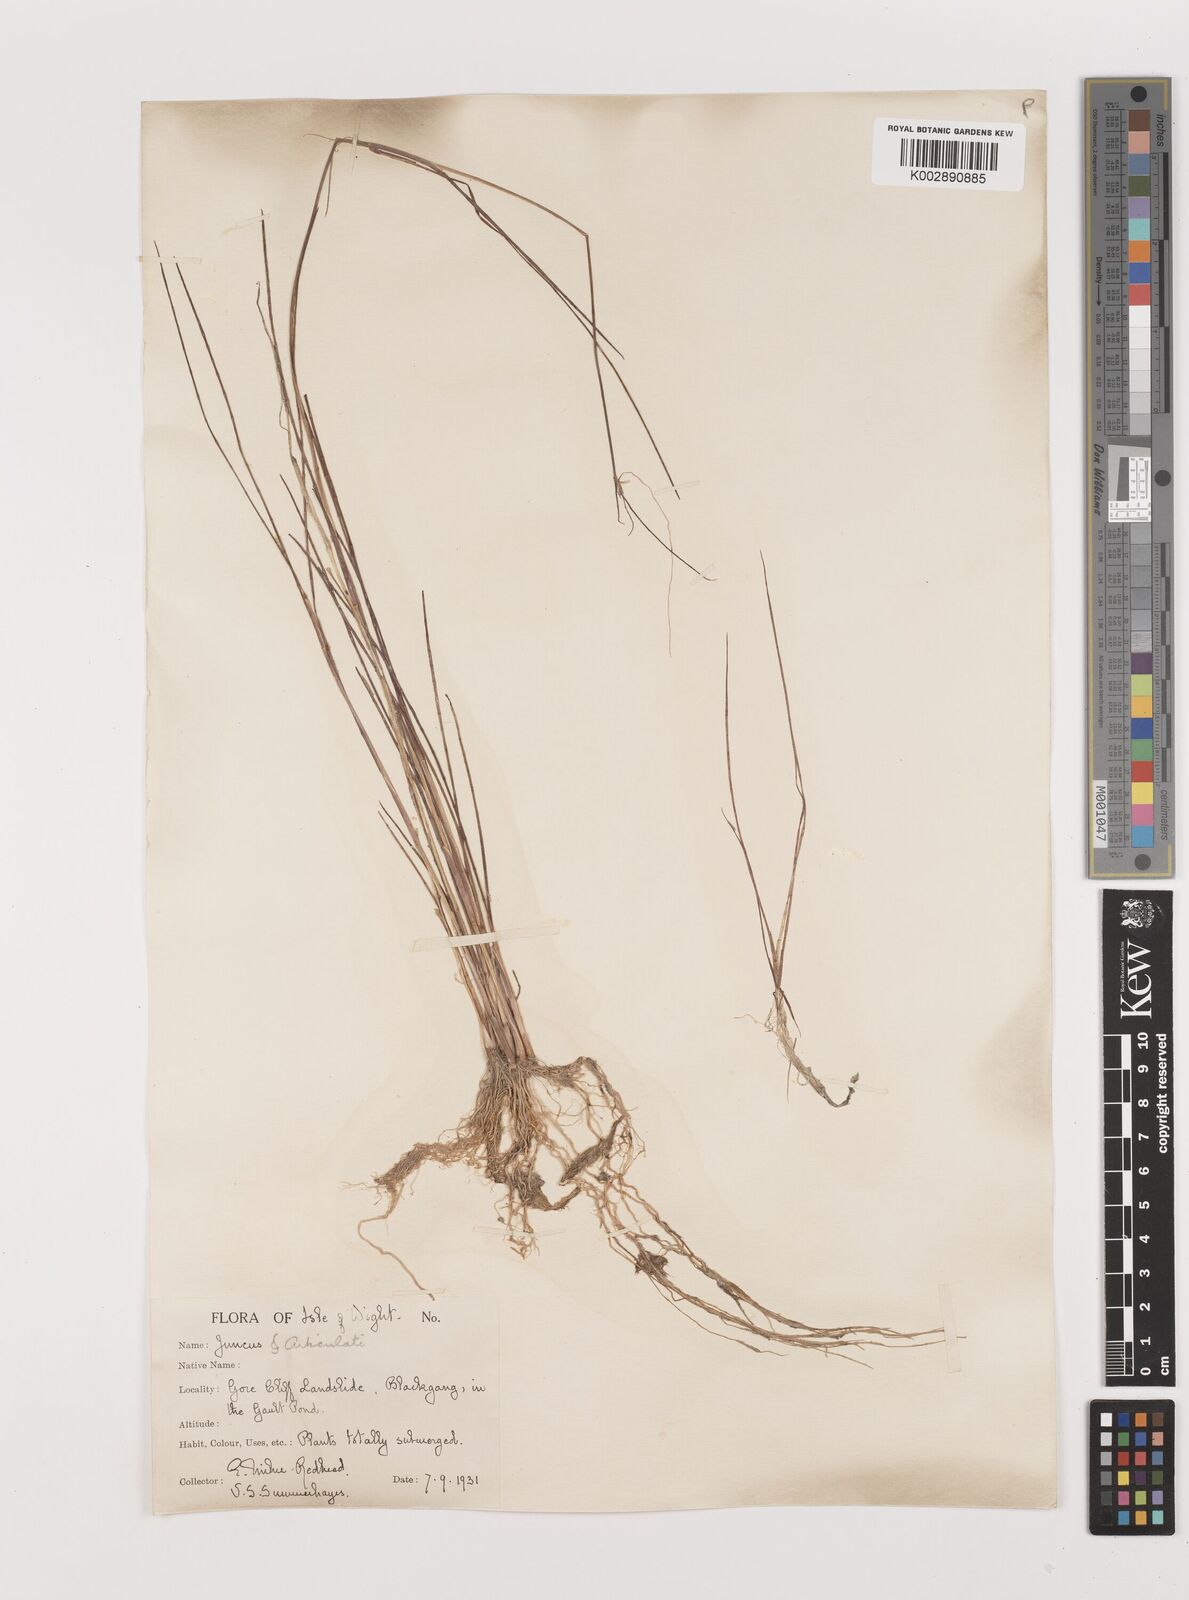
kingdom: Plantae
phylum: Tracheophyta
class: Liliopsida
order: Poales
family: Juncaceae
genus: Juncus
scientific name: Juncus
